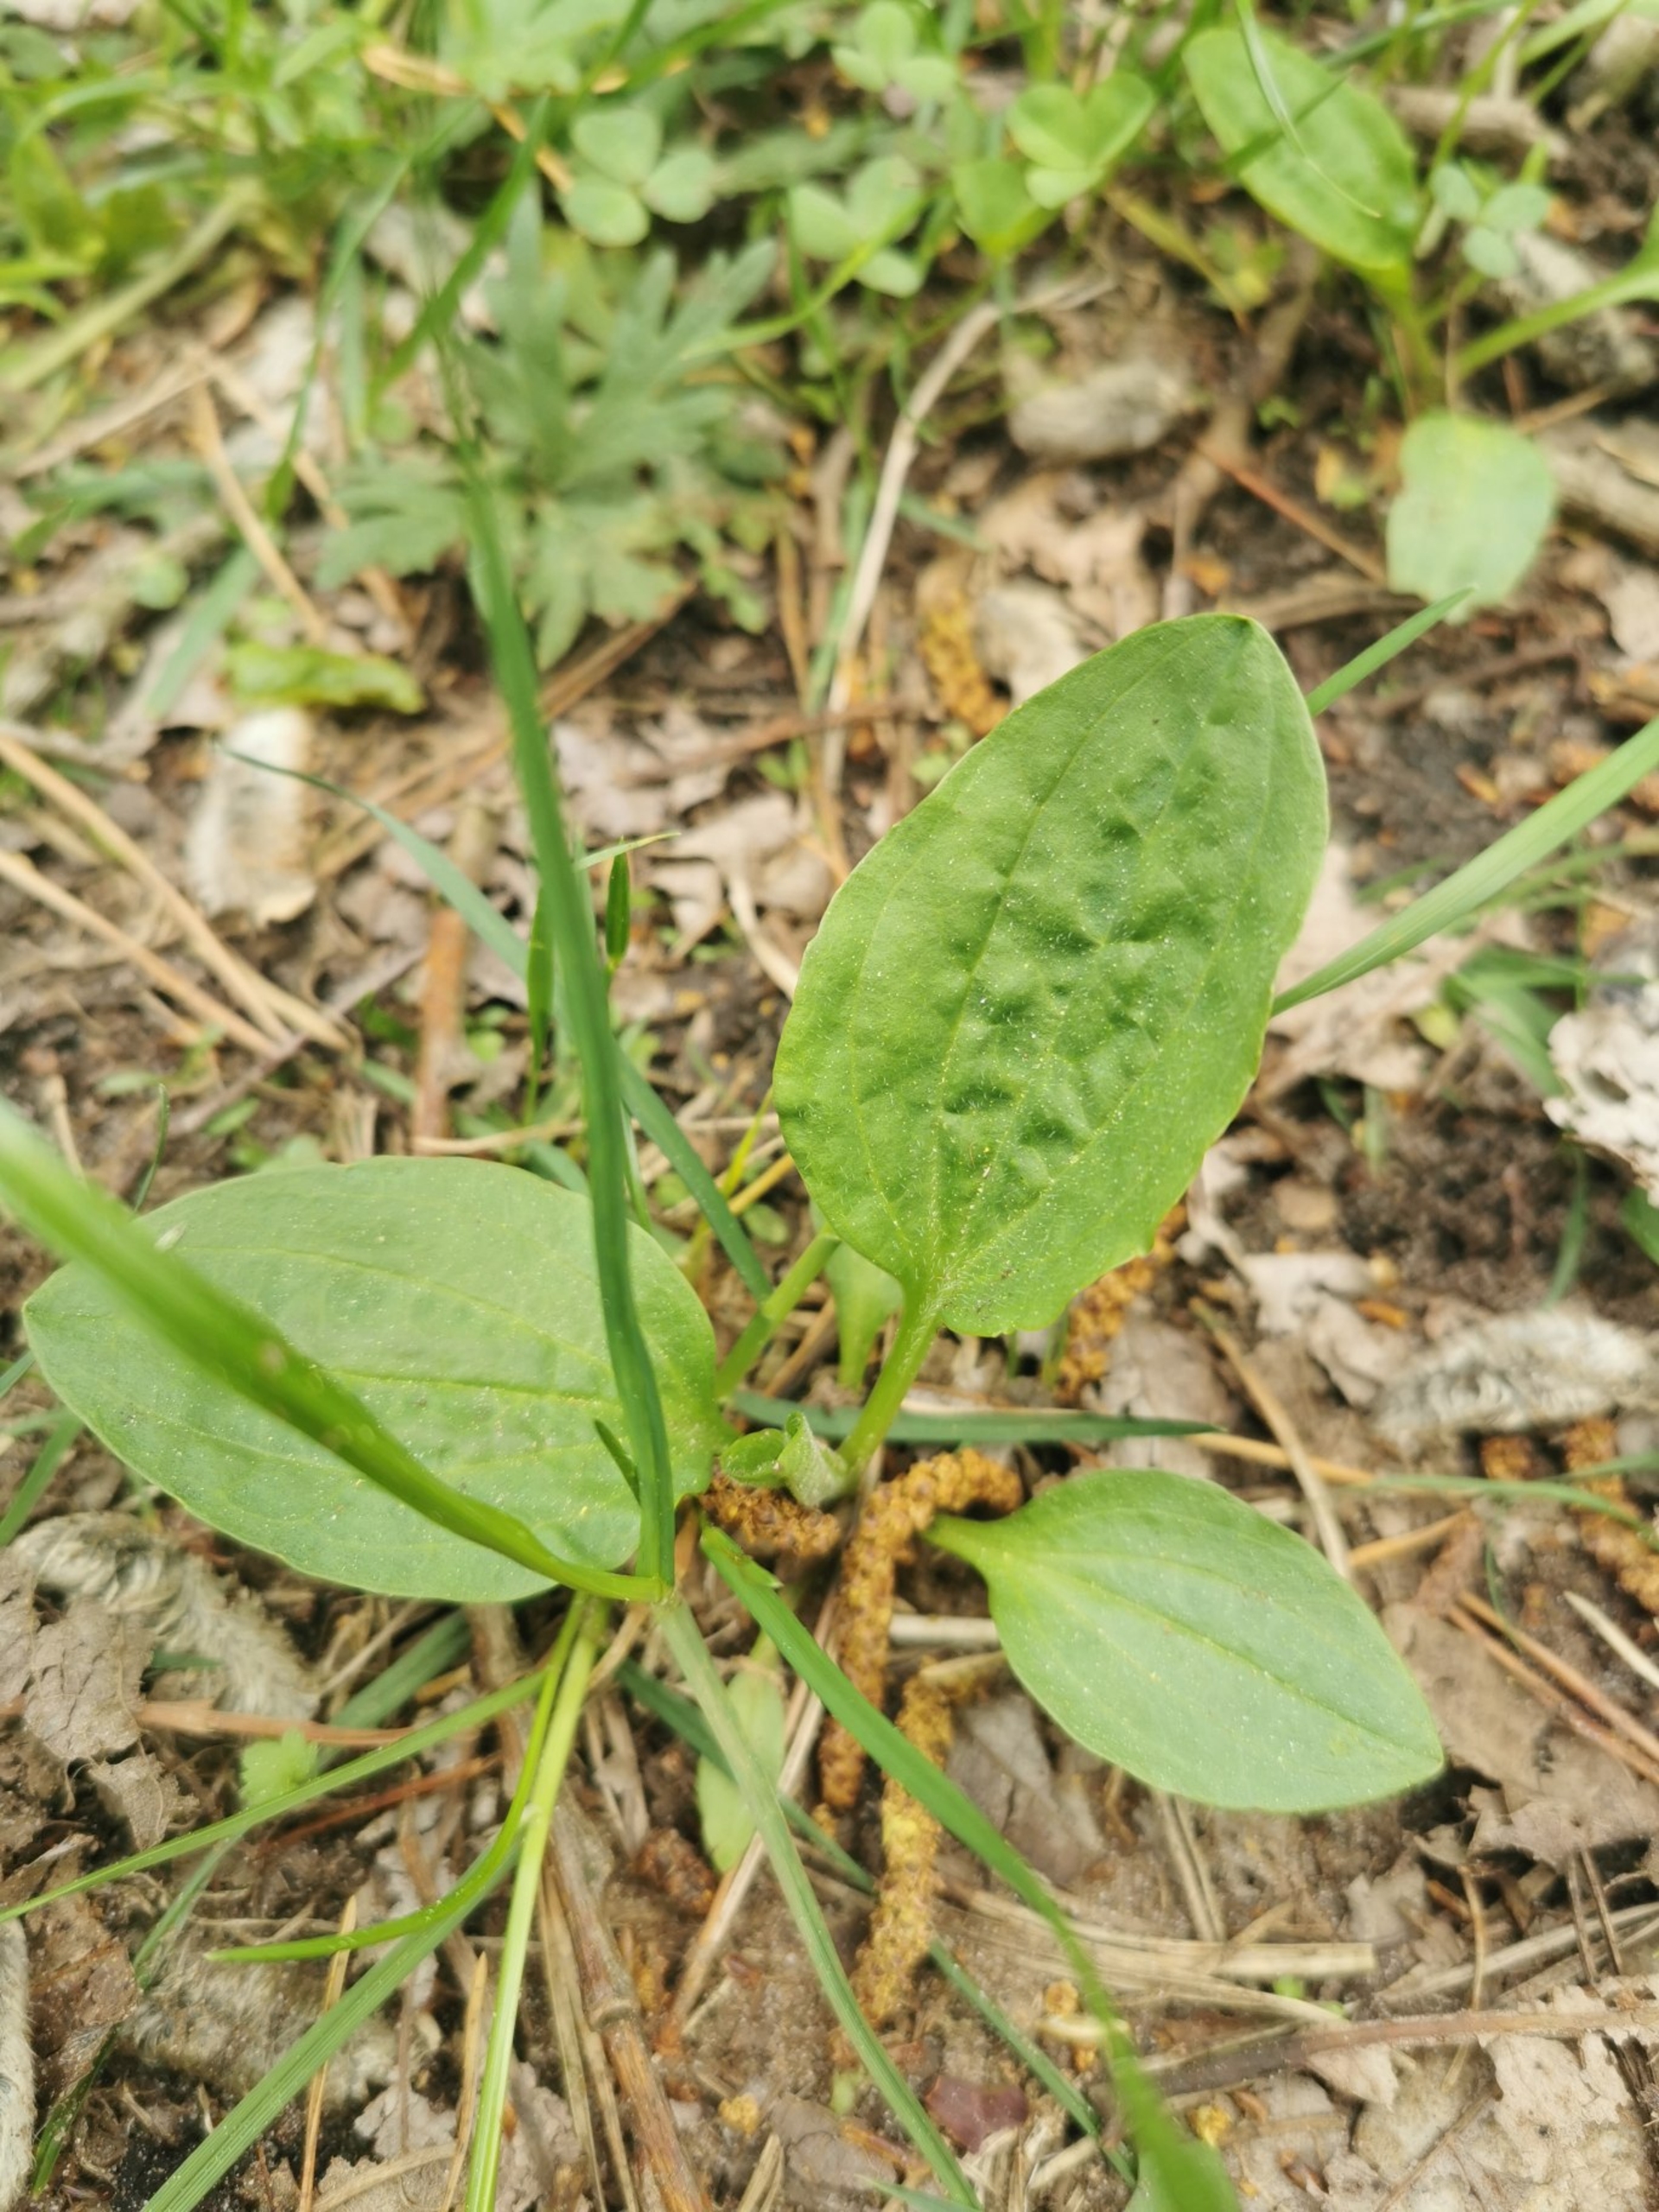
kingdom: Plantae
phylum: Tracheophyta
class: Magnoliopsida
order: Lamiales
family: Plantaginaceae
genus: Plantago
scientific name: Plantago major
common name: Glat vejbred
